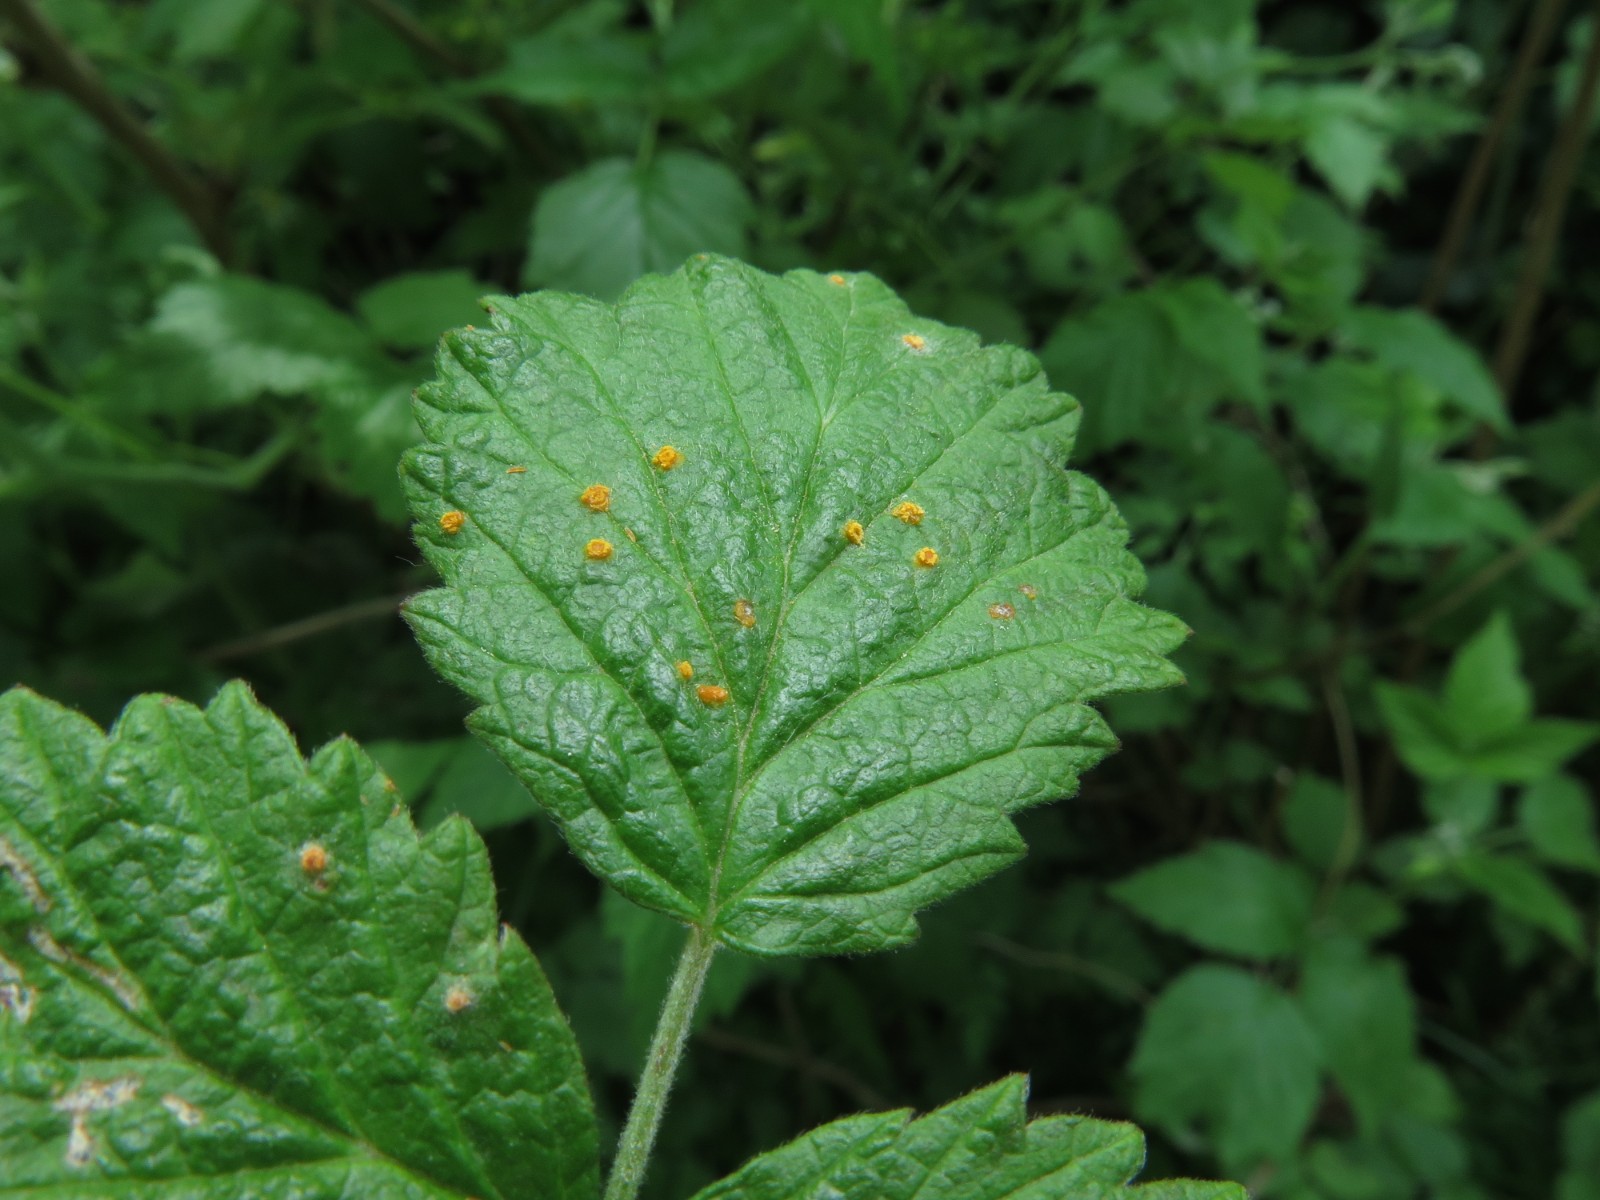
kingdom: Fungi
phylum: Basidiomycota
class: Pucciniomycetes
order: Pucciniales
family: Phragmidiaceae
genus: Phragmidium
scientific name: Phragmidium rubi-idaei
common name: hindbær-flercellerust
